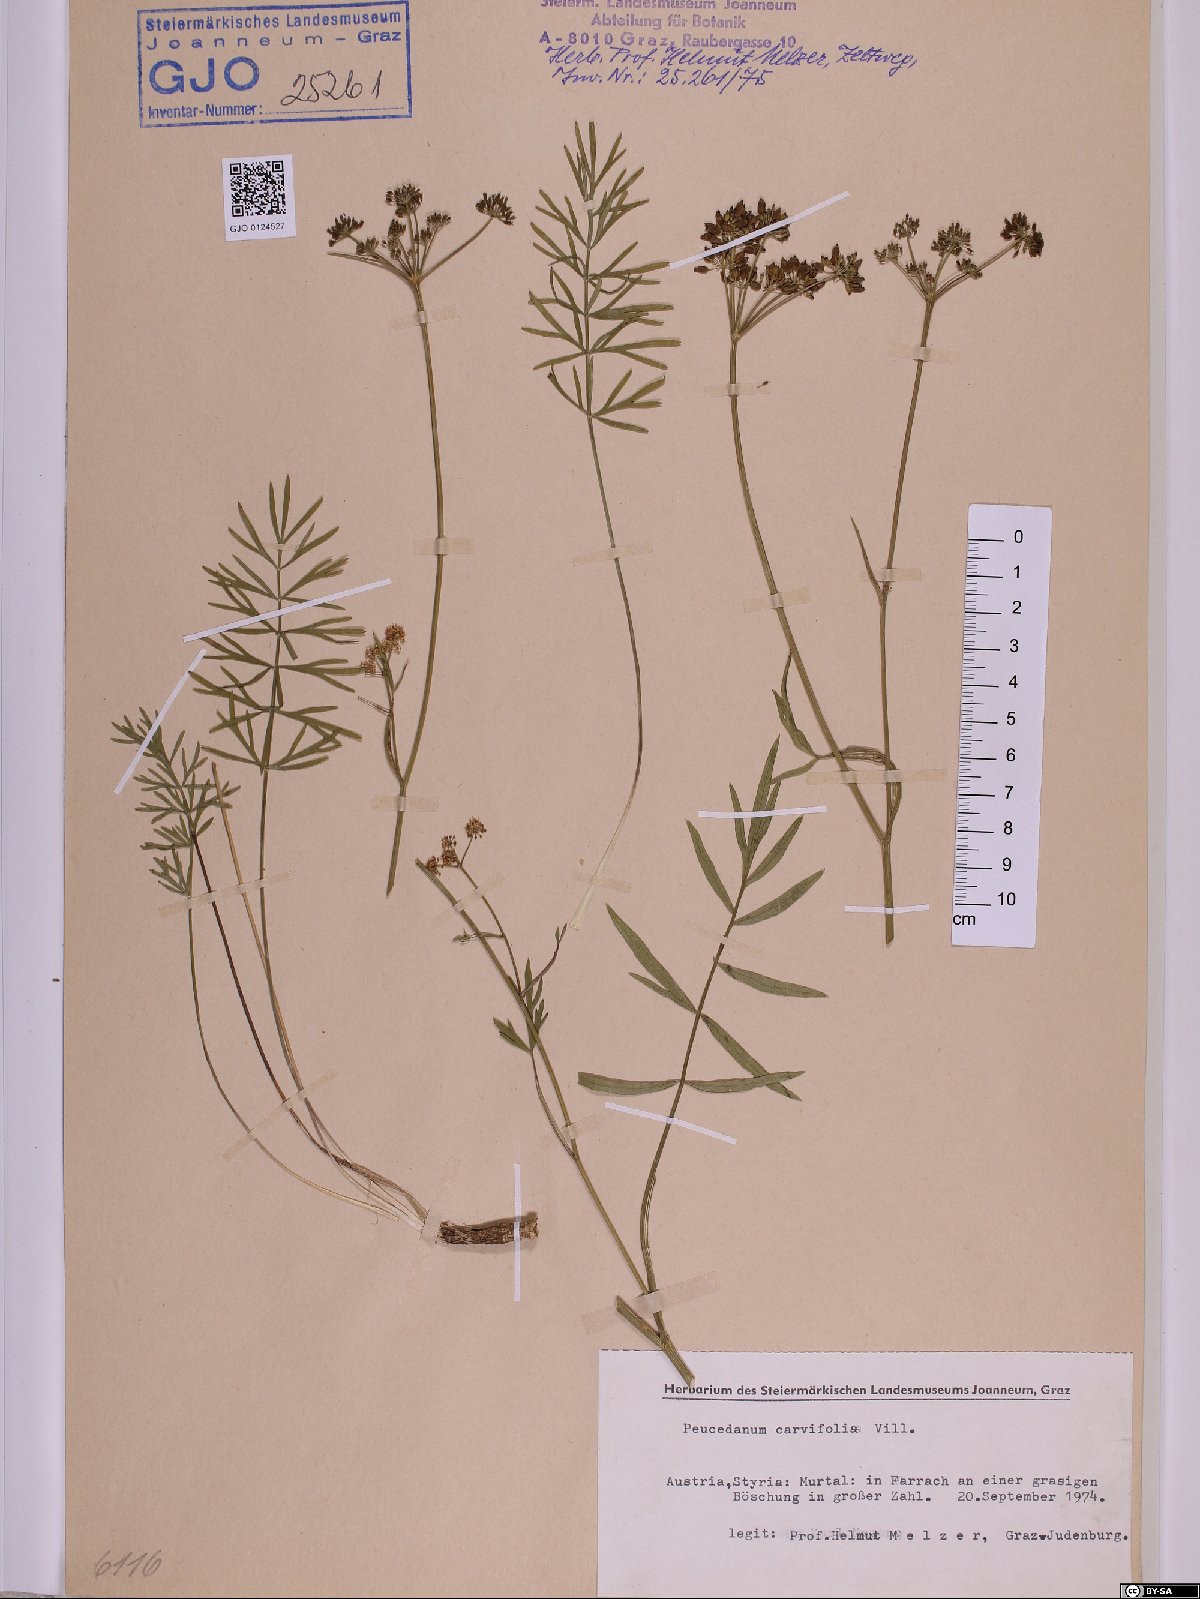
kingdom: Plantae
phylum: Tracheophyta
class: Magnoliopsida
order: Apiales
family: Apiaceae
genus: Dichoropetalum
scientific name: Dichoropetalum carvifolia
